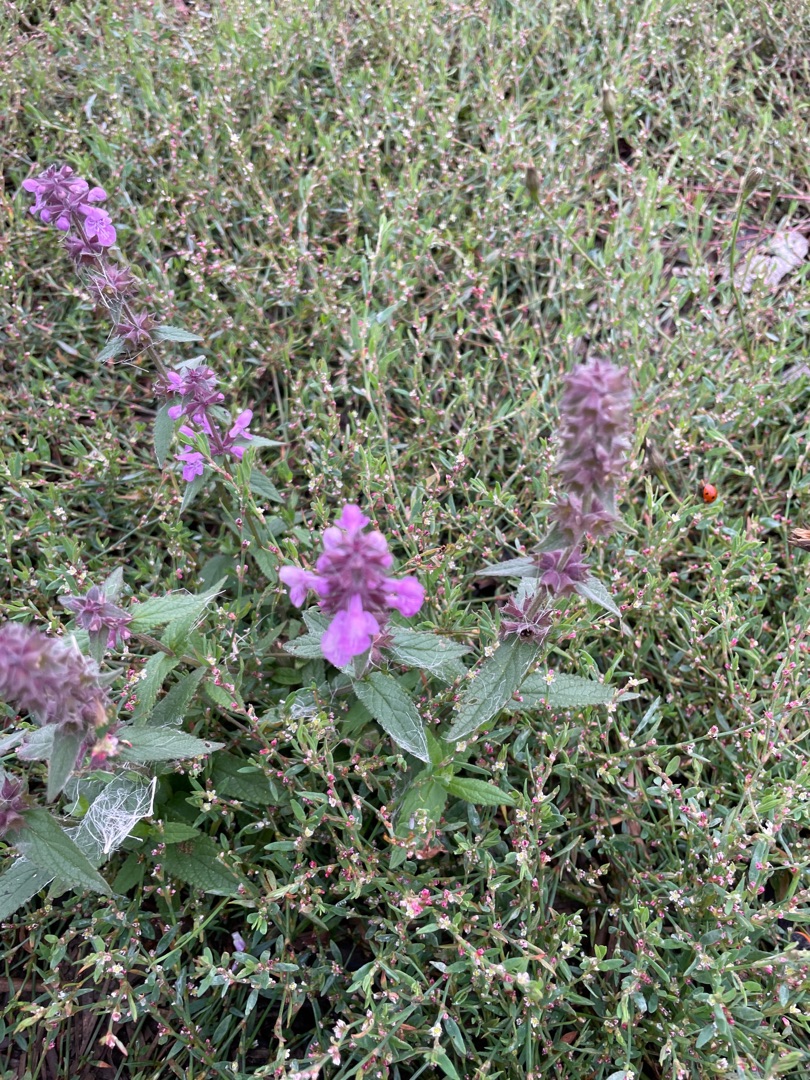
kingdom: Plantae
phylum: Tracheophyta
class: Magnoliopsida
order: Lamiales
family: Lamiaceae
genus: Stachys
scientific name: Stachys palustris
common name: Kær-galtetand
